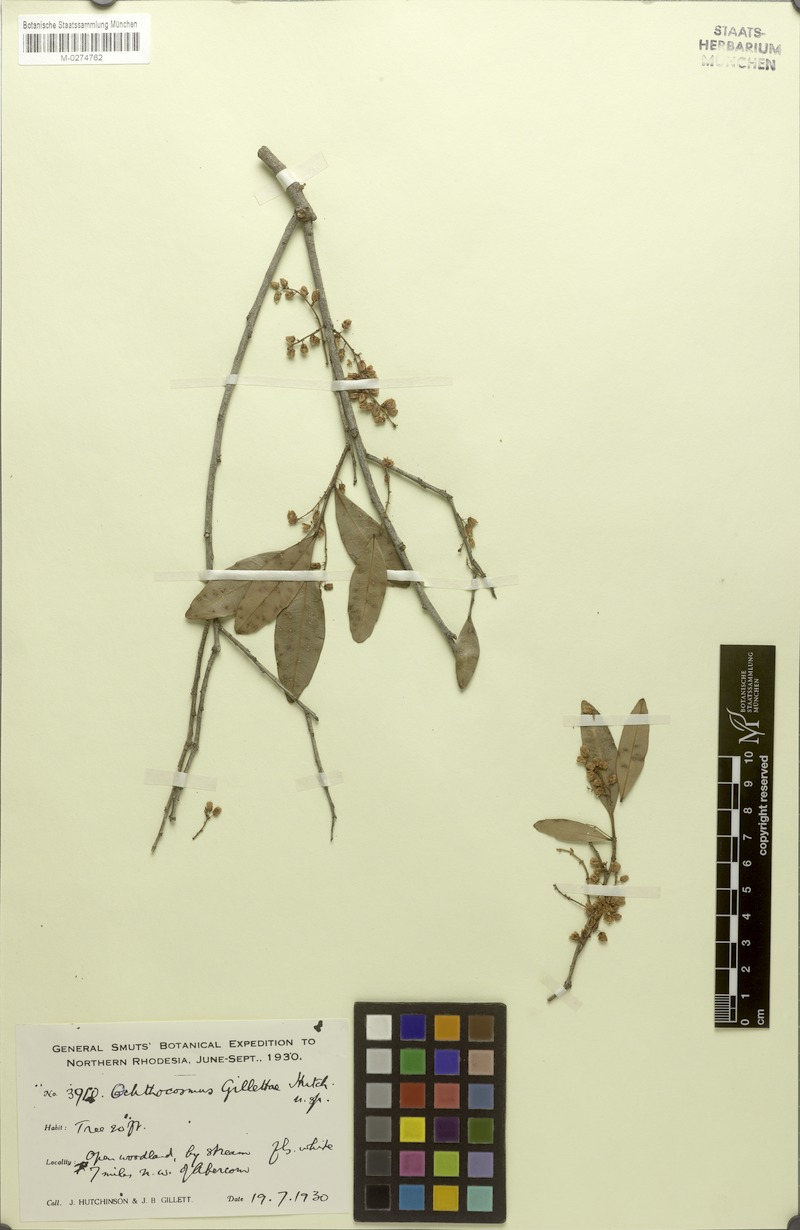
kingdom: Plantae
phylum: Tracheophyta
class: Magnoliopsida
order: Malpighiales
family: Ixonanthaceae
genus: Phyllocosmus
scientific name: Phyllocosmus lemaireanus
